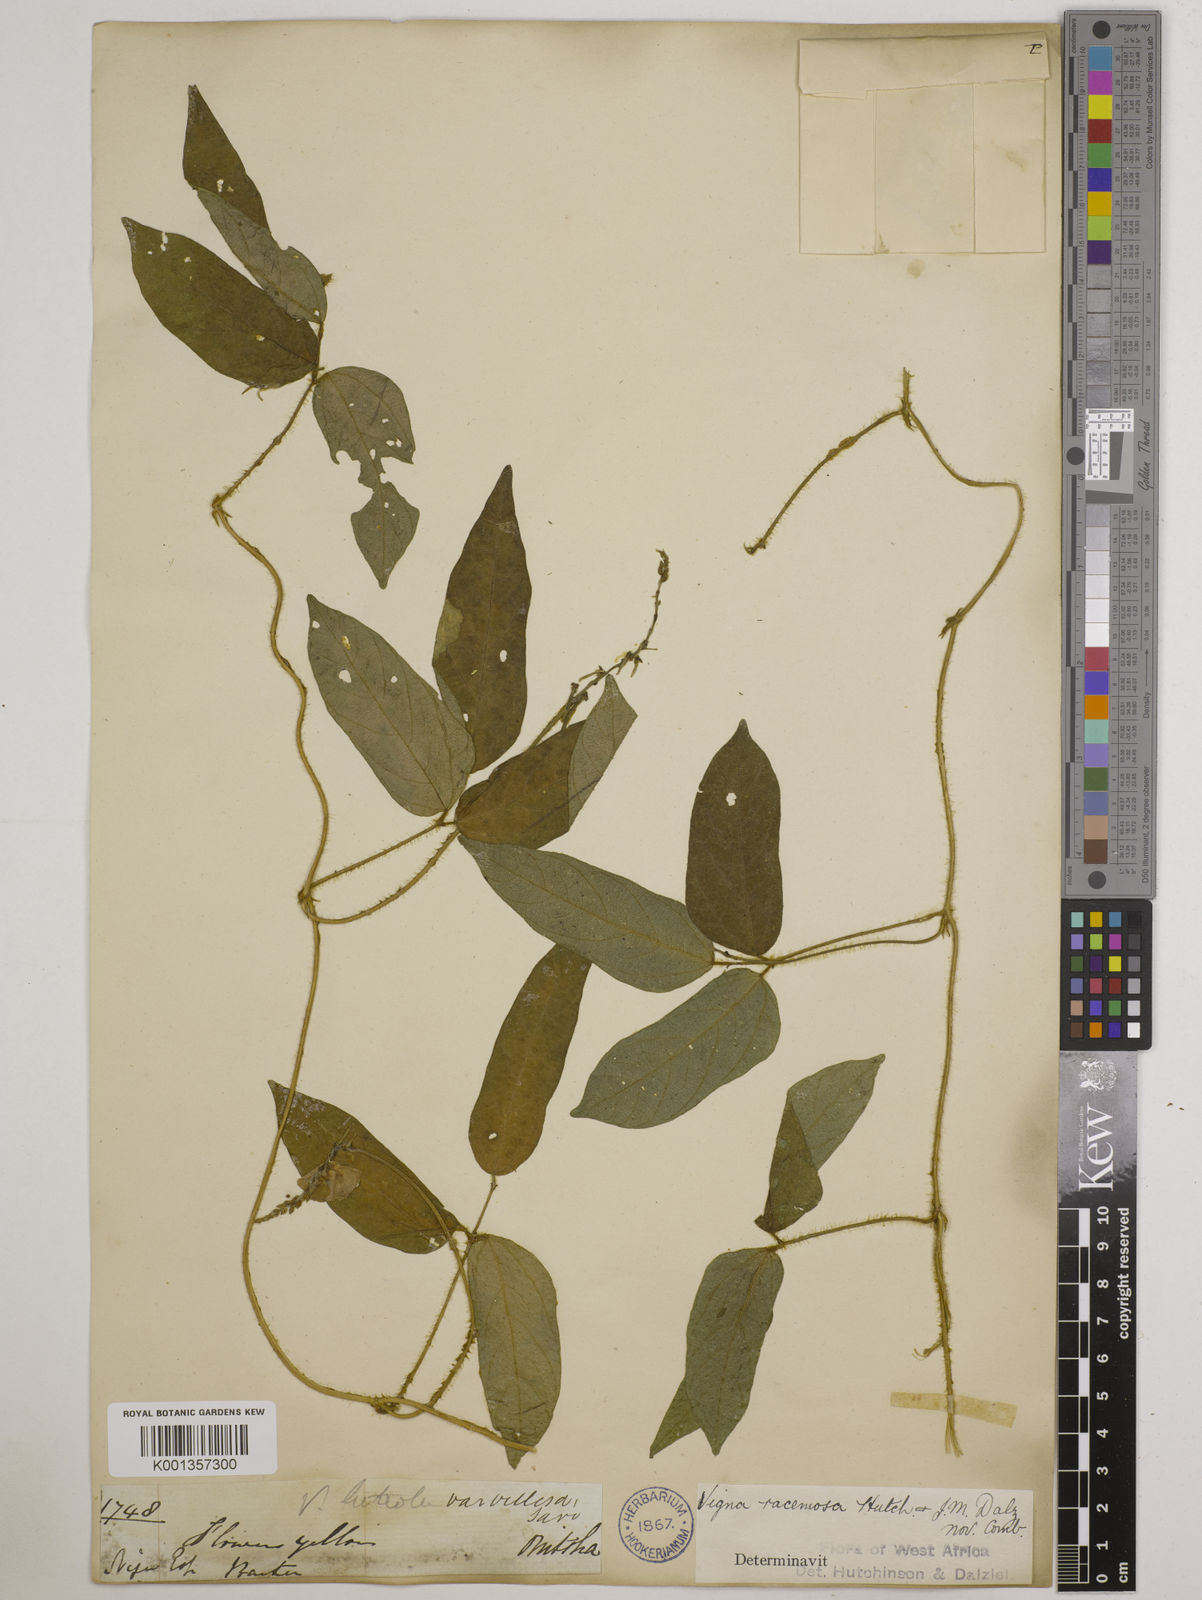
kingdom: Plantae
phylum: Tracheophyta
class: Magnoliopsida
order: Fabales
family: Fabaceae
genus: Vigna
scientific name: Vigna racemosa
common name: Beans not eaten
